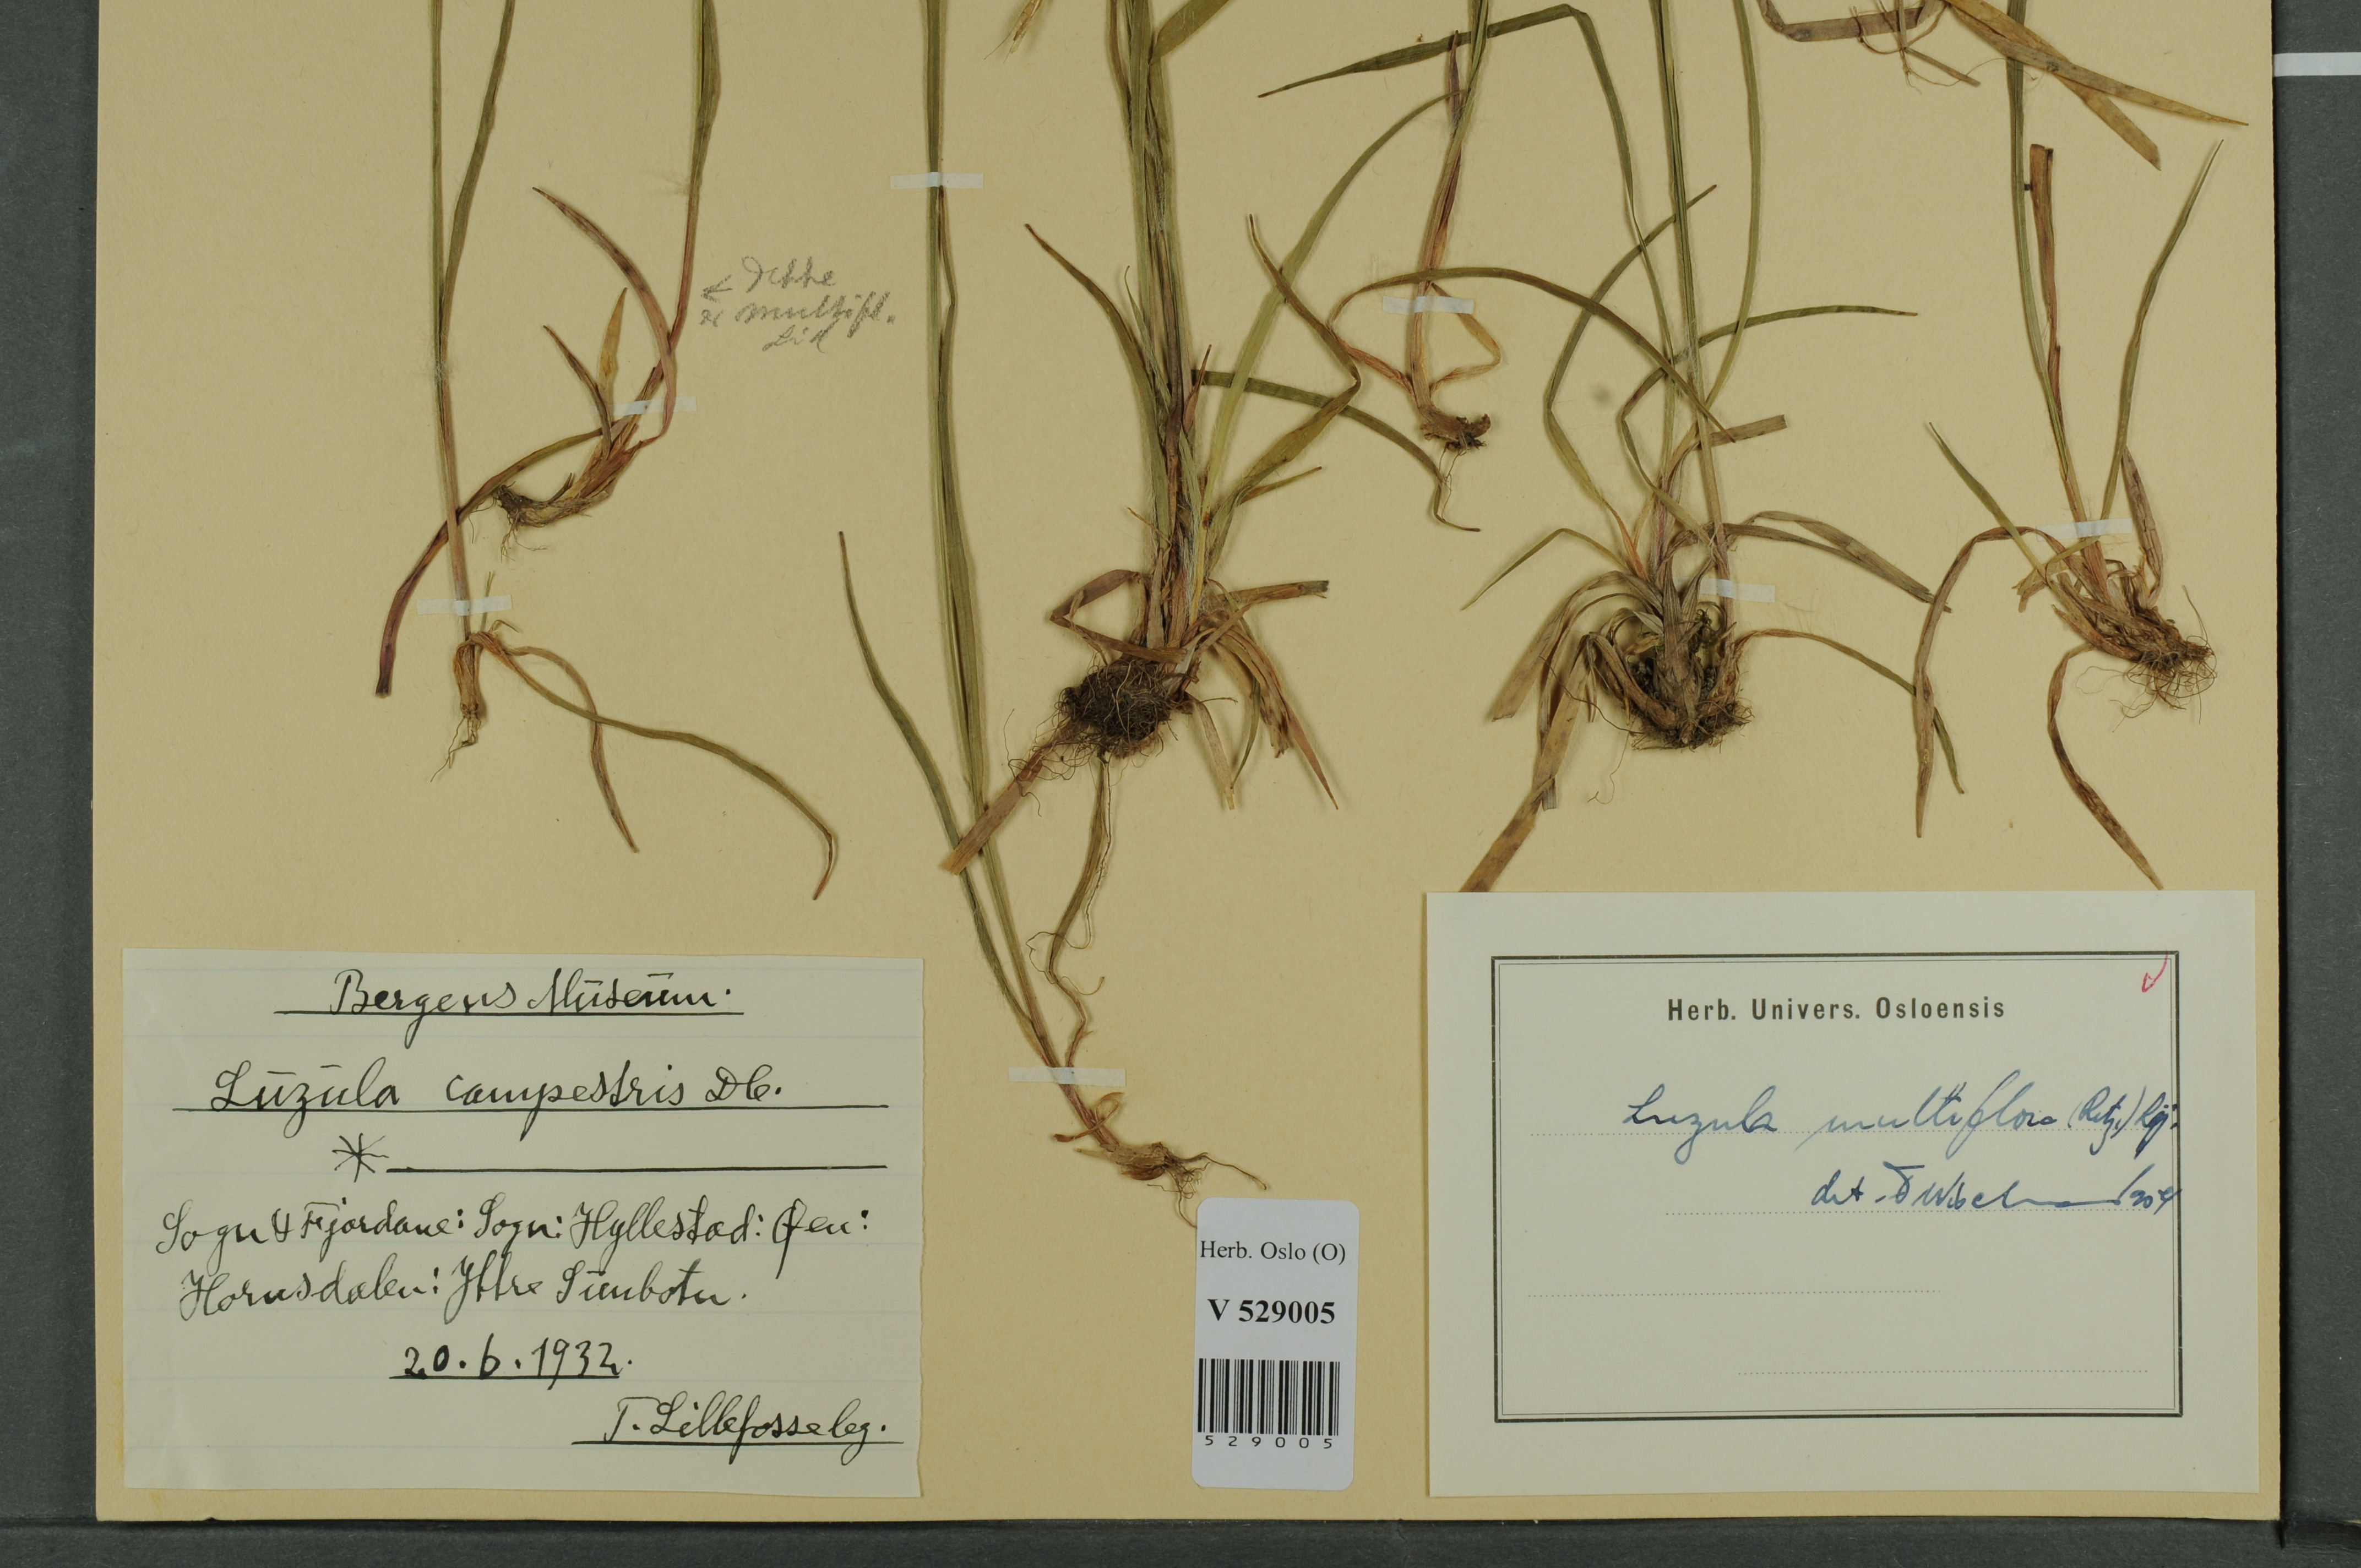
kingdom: Plantae
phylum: Tracheophyta
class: Liliopsida
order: Poales
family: Juncaceae
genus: Luzula
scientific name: Luzula multiflora
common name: Heath wood-rush
